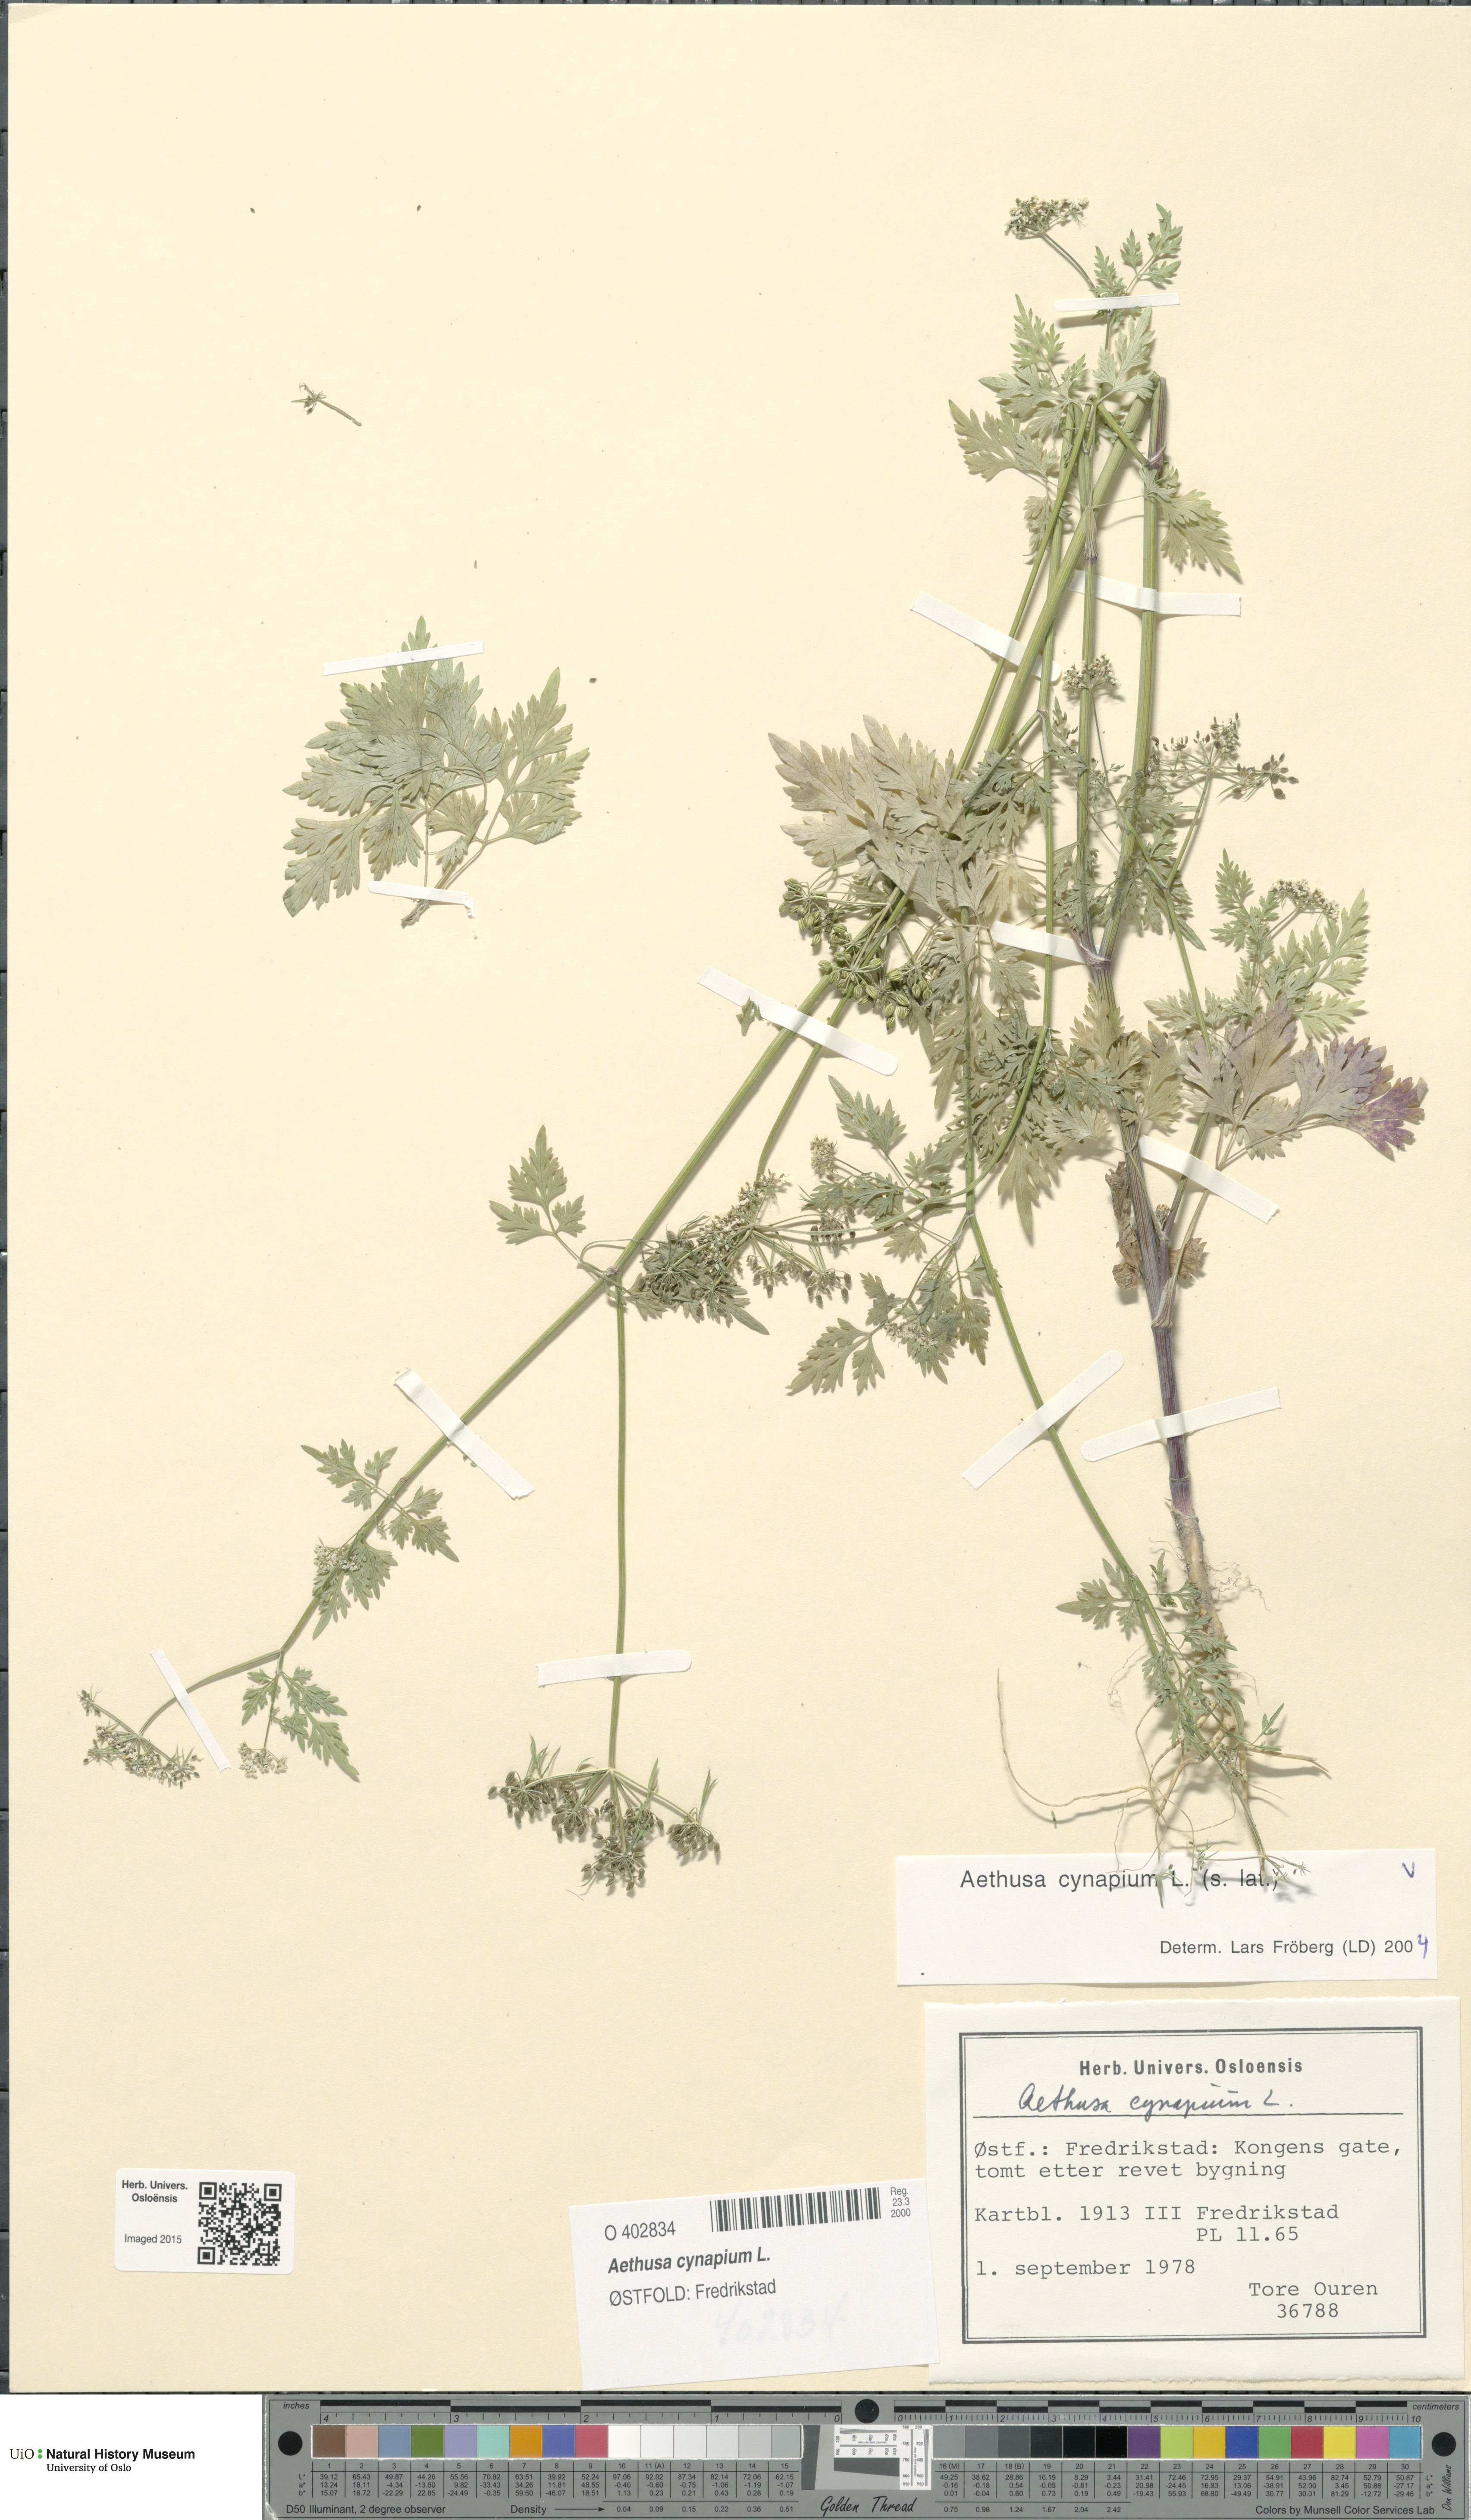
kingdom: Plantae
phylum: Tracheophyta
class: Magnoliopsida
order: Apiales
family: Apiaceae
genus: Aethusa
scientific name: Aethusa cynapium
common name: Fool's parsley
